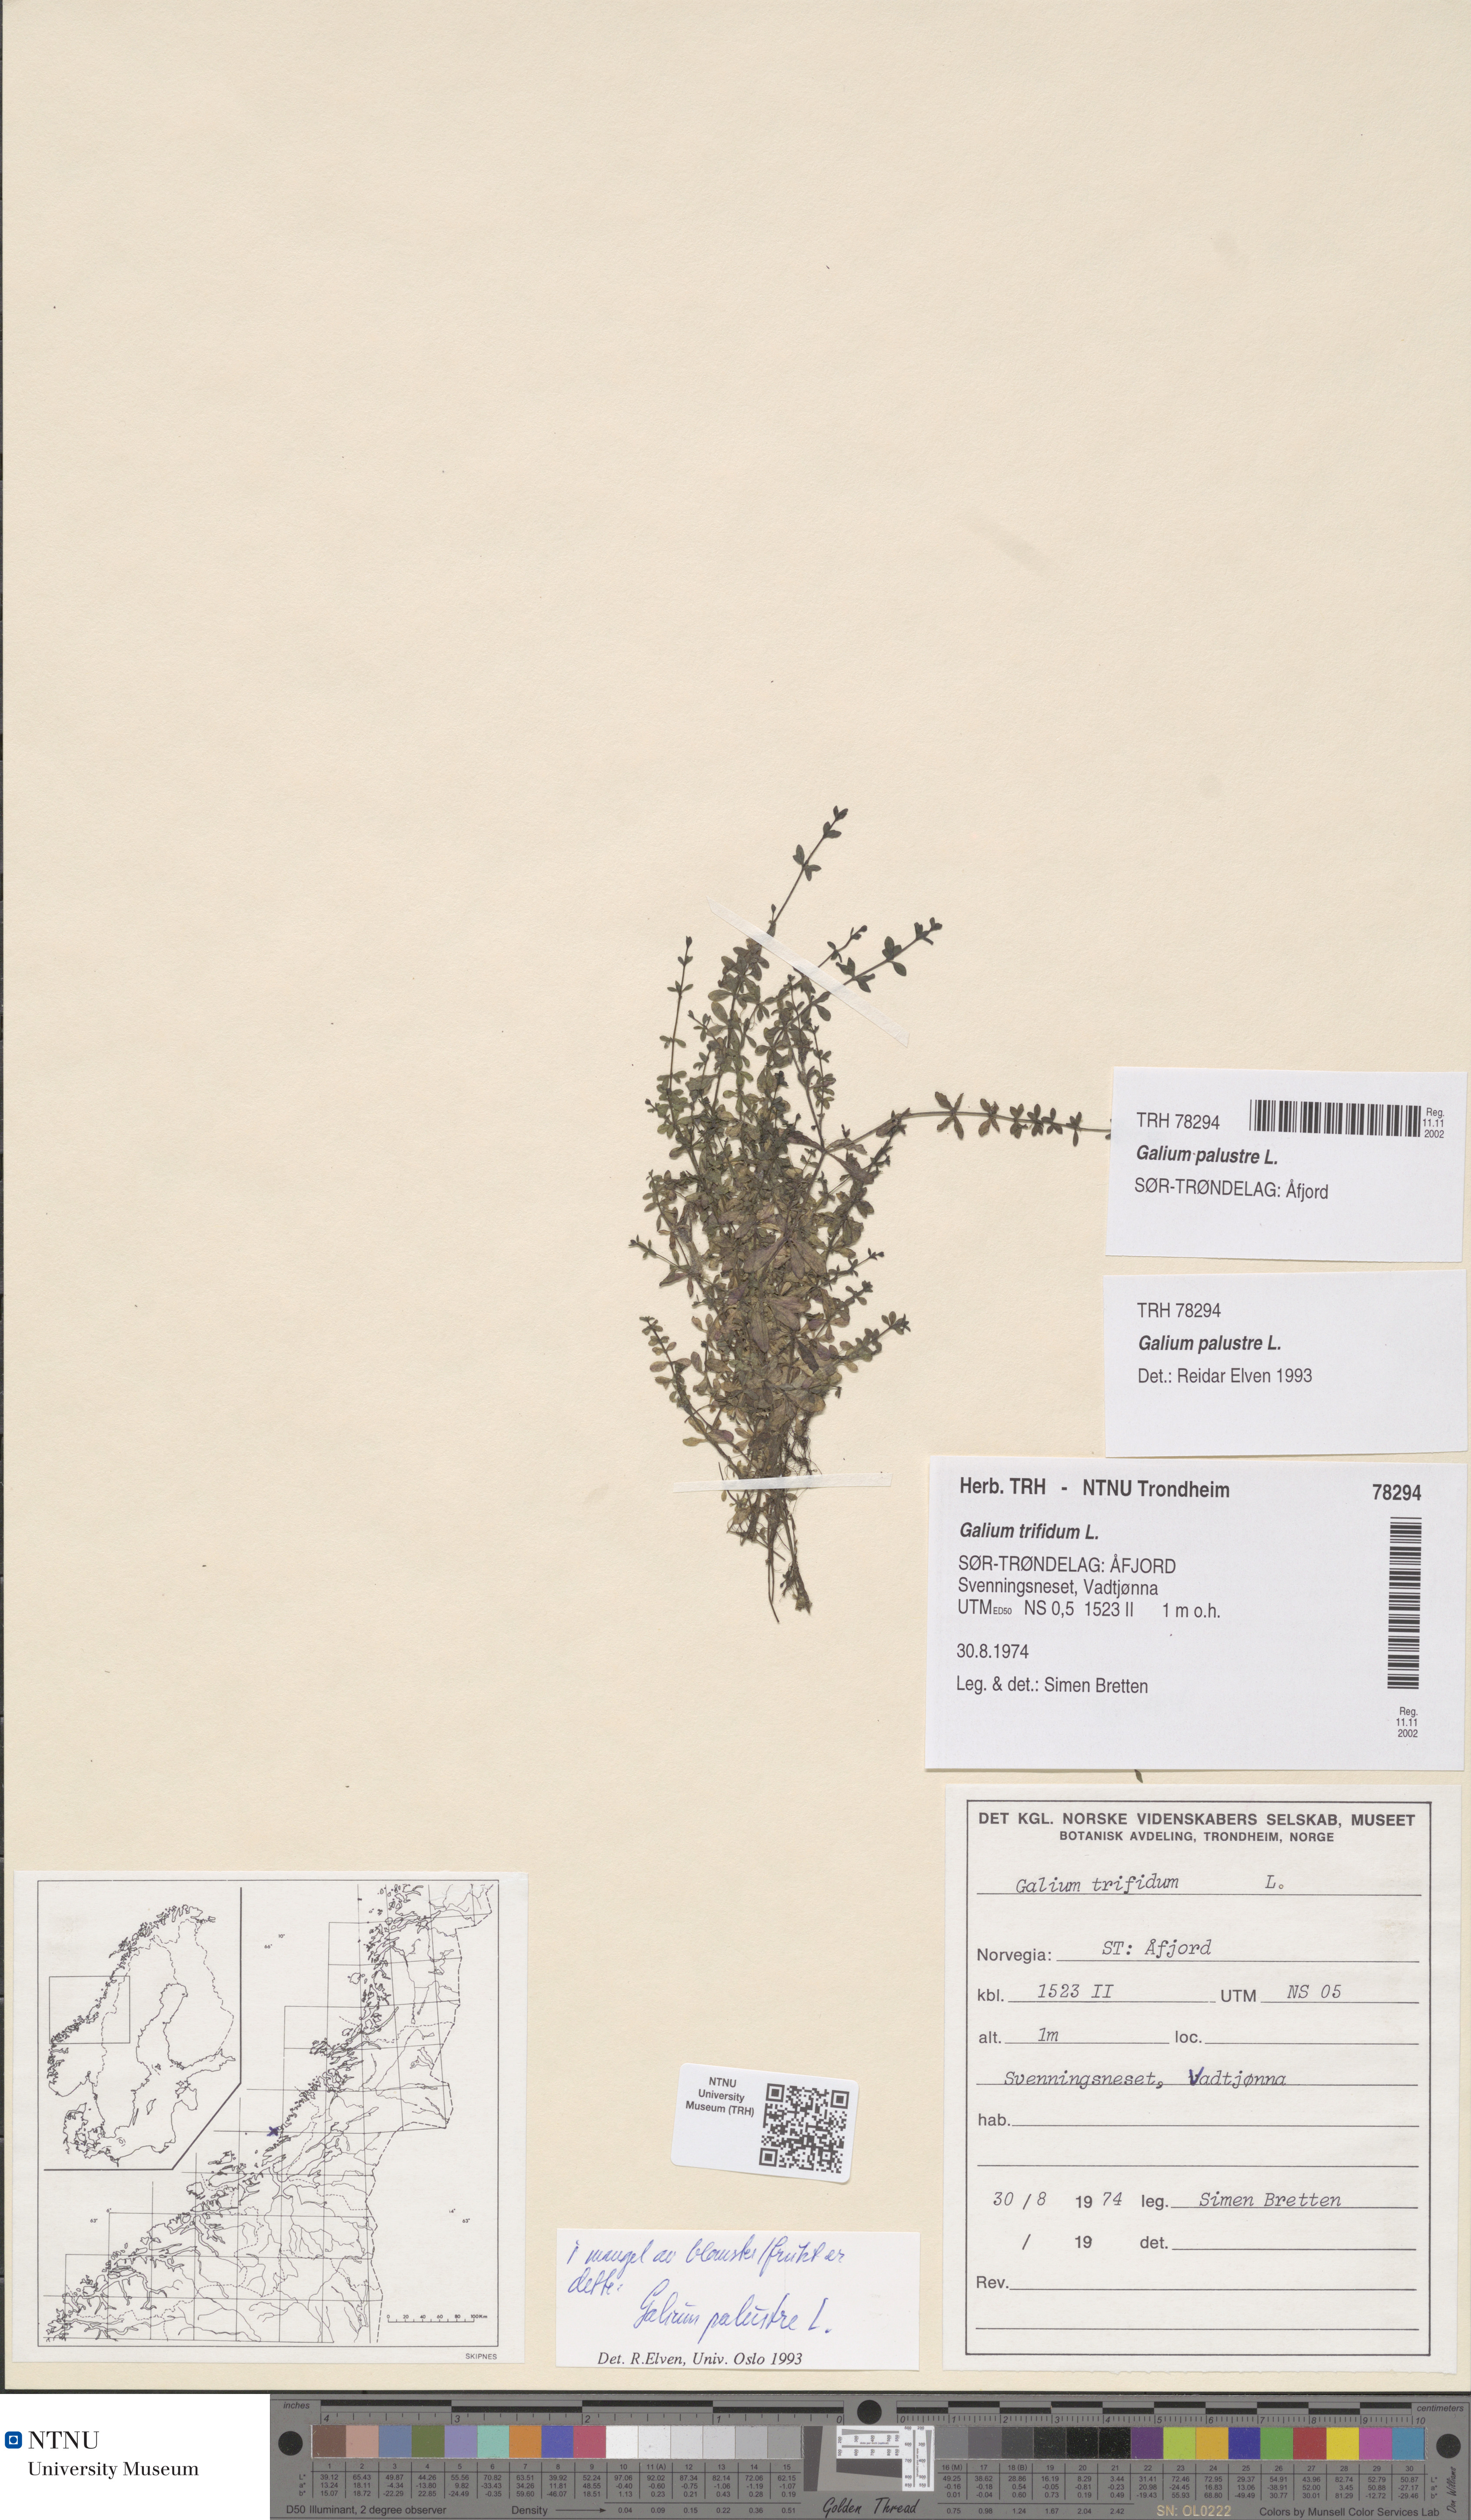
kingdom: Plantae
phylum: Tracheophyta
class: Magnoliopsida
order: Gentianales
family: Rubiaceae
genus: Galium
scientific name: Galium palustre
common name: Common marsh-bedstraw
